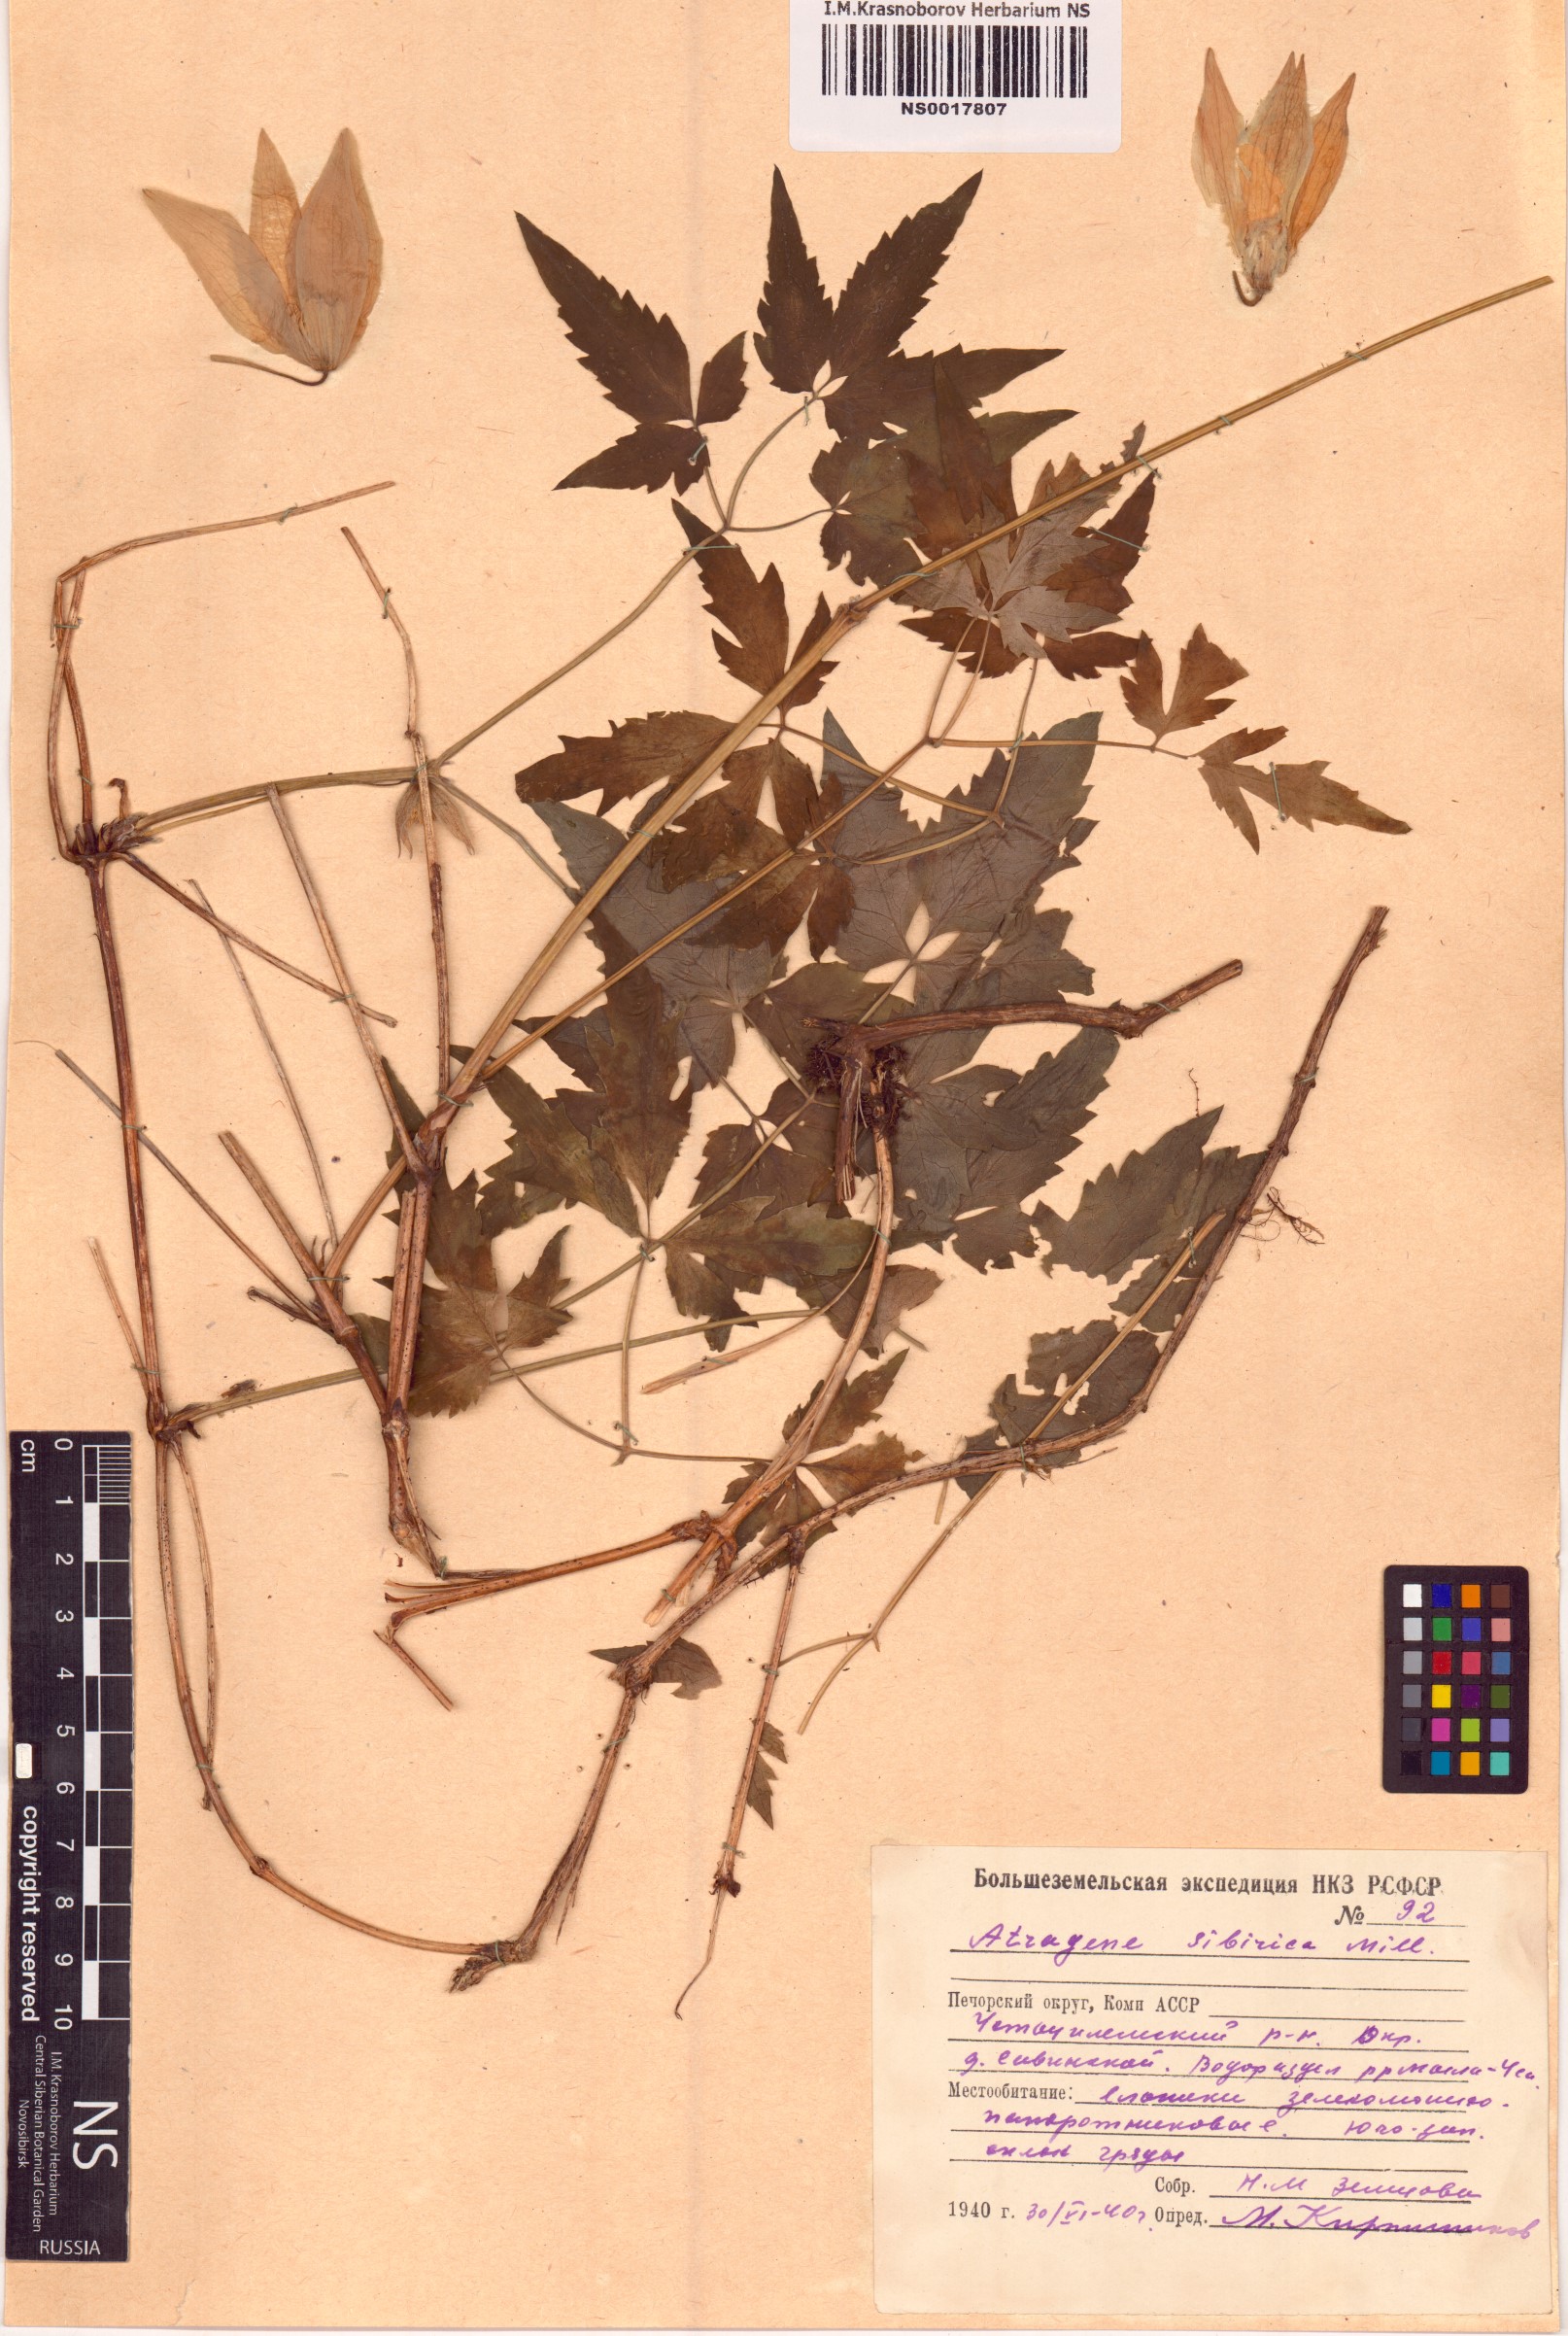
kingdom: Plantae
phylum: Tracheophyta
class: Magnoliopsida
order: Ranunculales
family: Ranunculaceae
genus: Clematis
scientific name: Clematis sibirica
